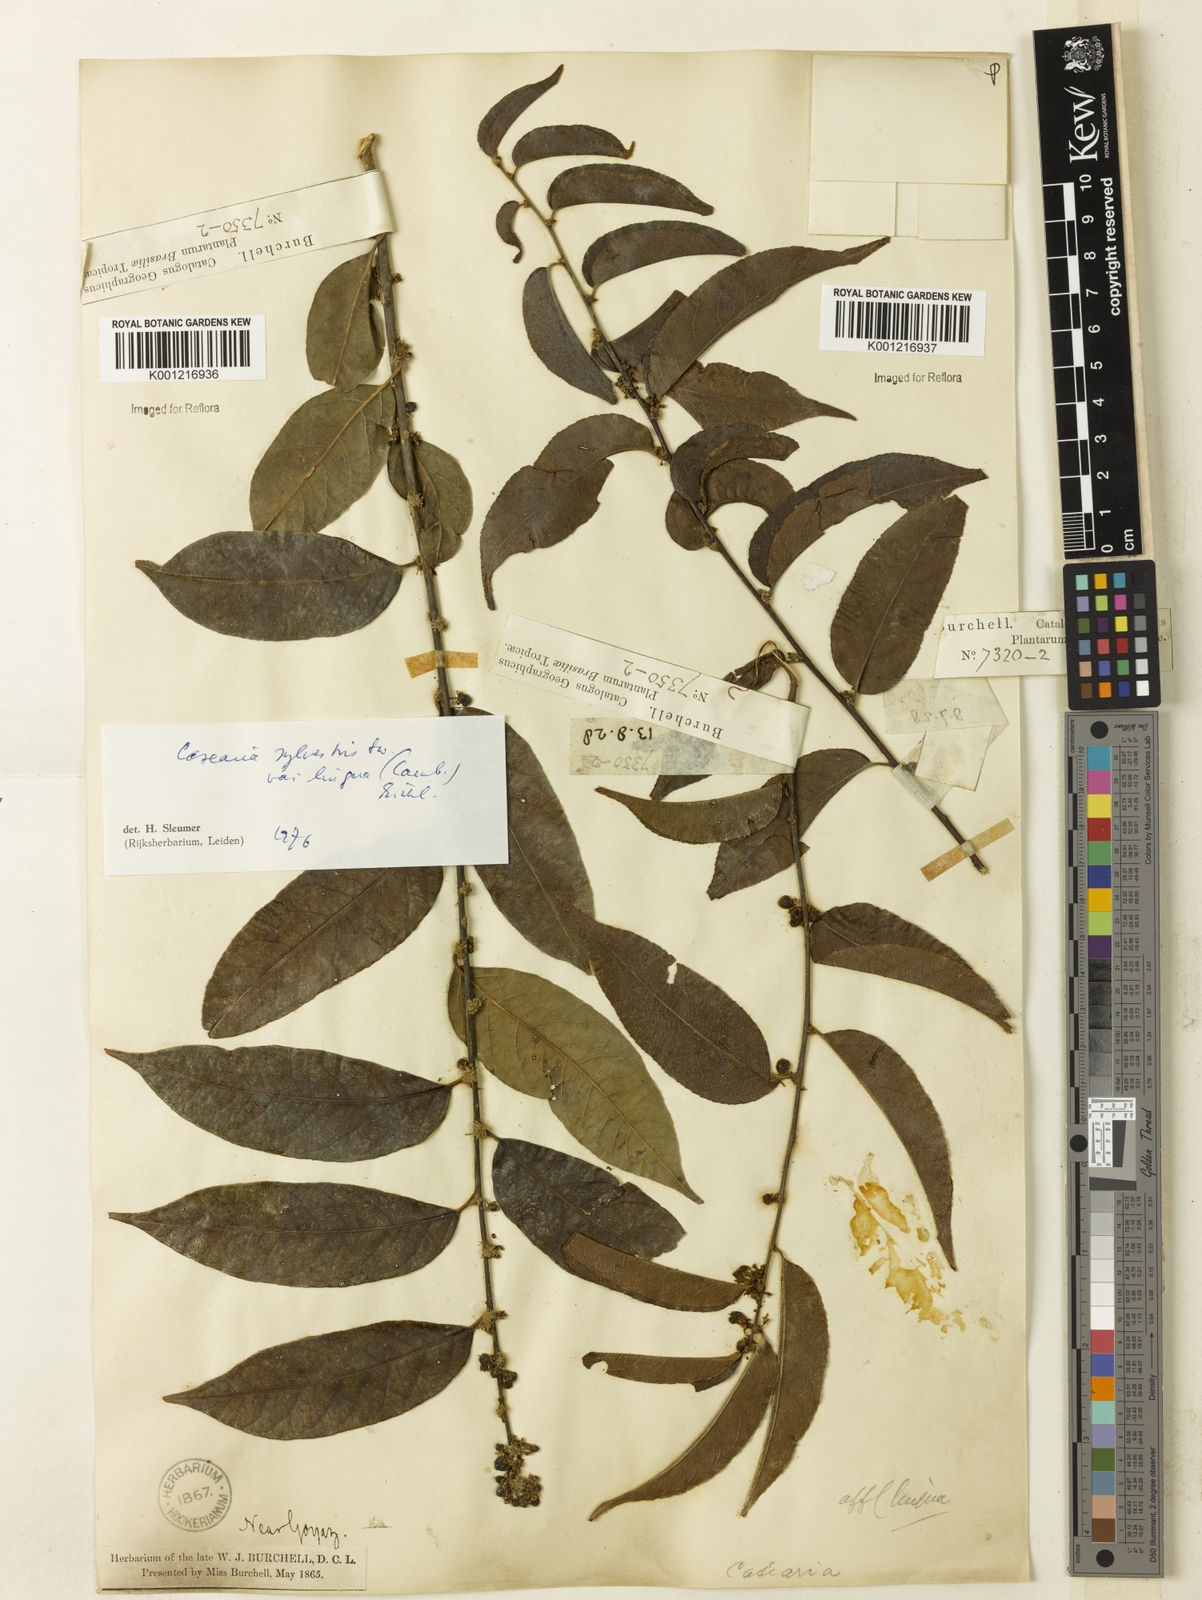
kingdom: Plantae
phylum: Tracheophyta
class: Magnoliopsida
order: Malpighiales
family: Salicaceae
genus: Casearia
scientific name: Casearia sylvestris
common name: Wild sage
